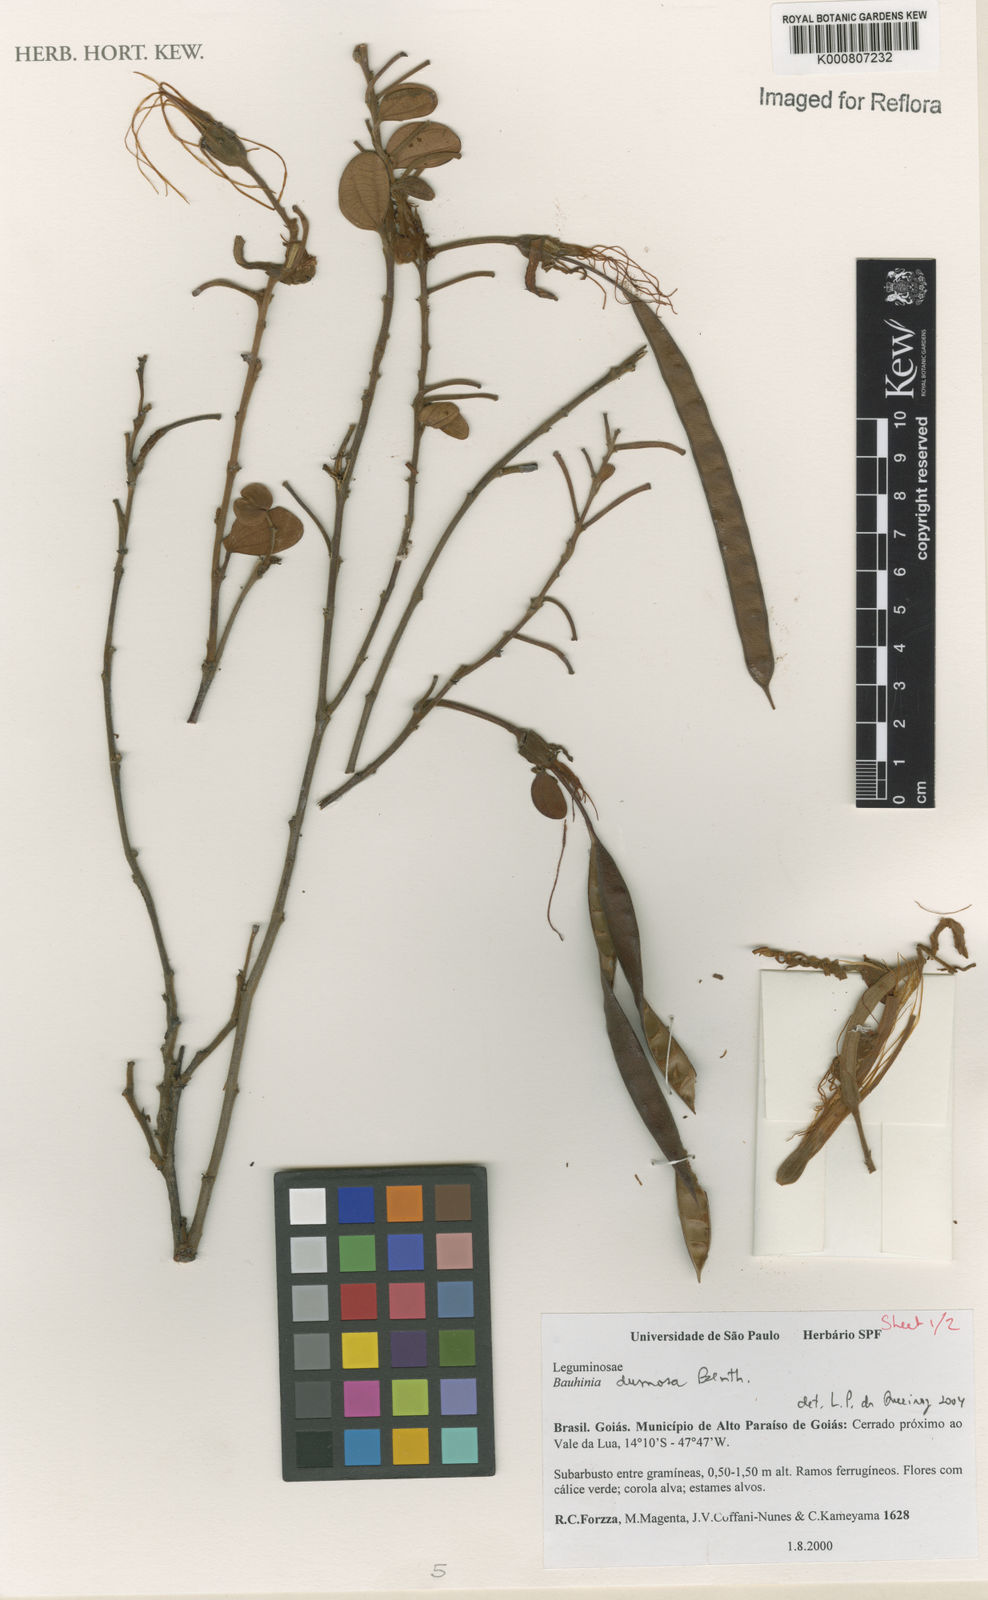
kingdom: Plantae
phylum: Tracheophyta
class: Magnoliopsida
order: Fabales
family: Fabaceae
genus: Bauhinia
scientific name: Bauhinia dumosa
